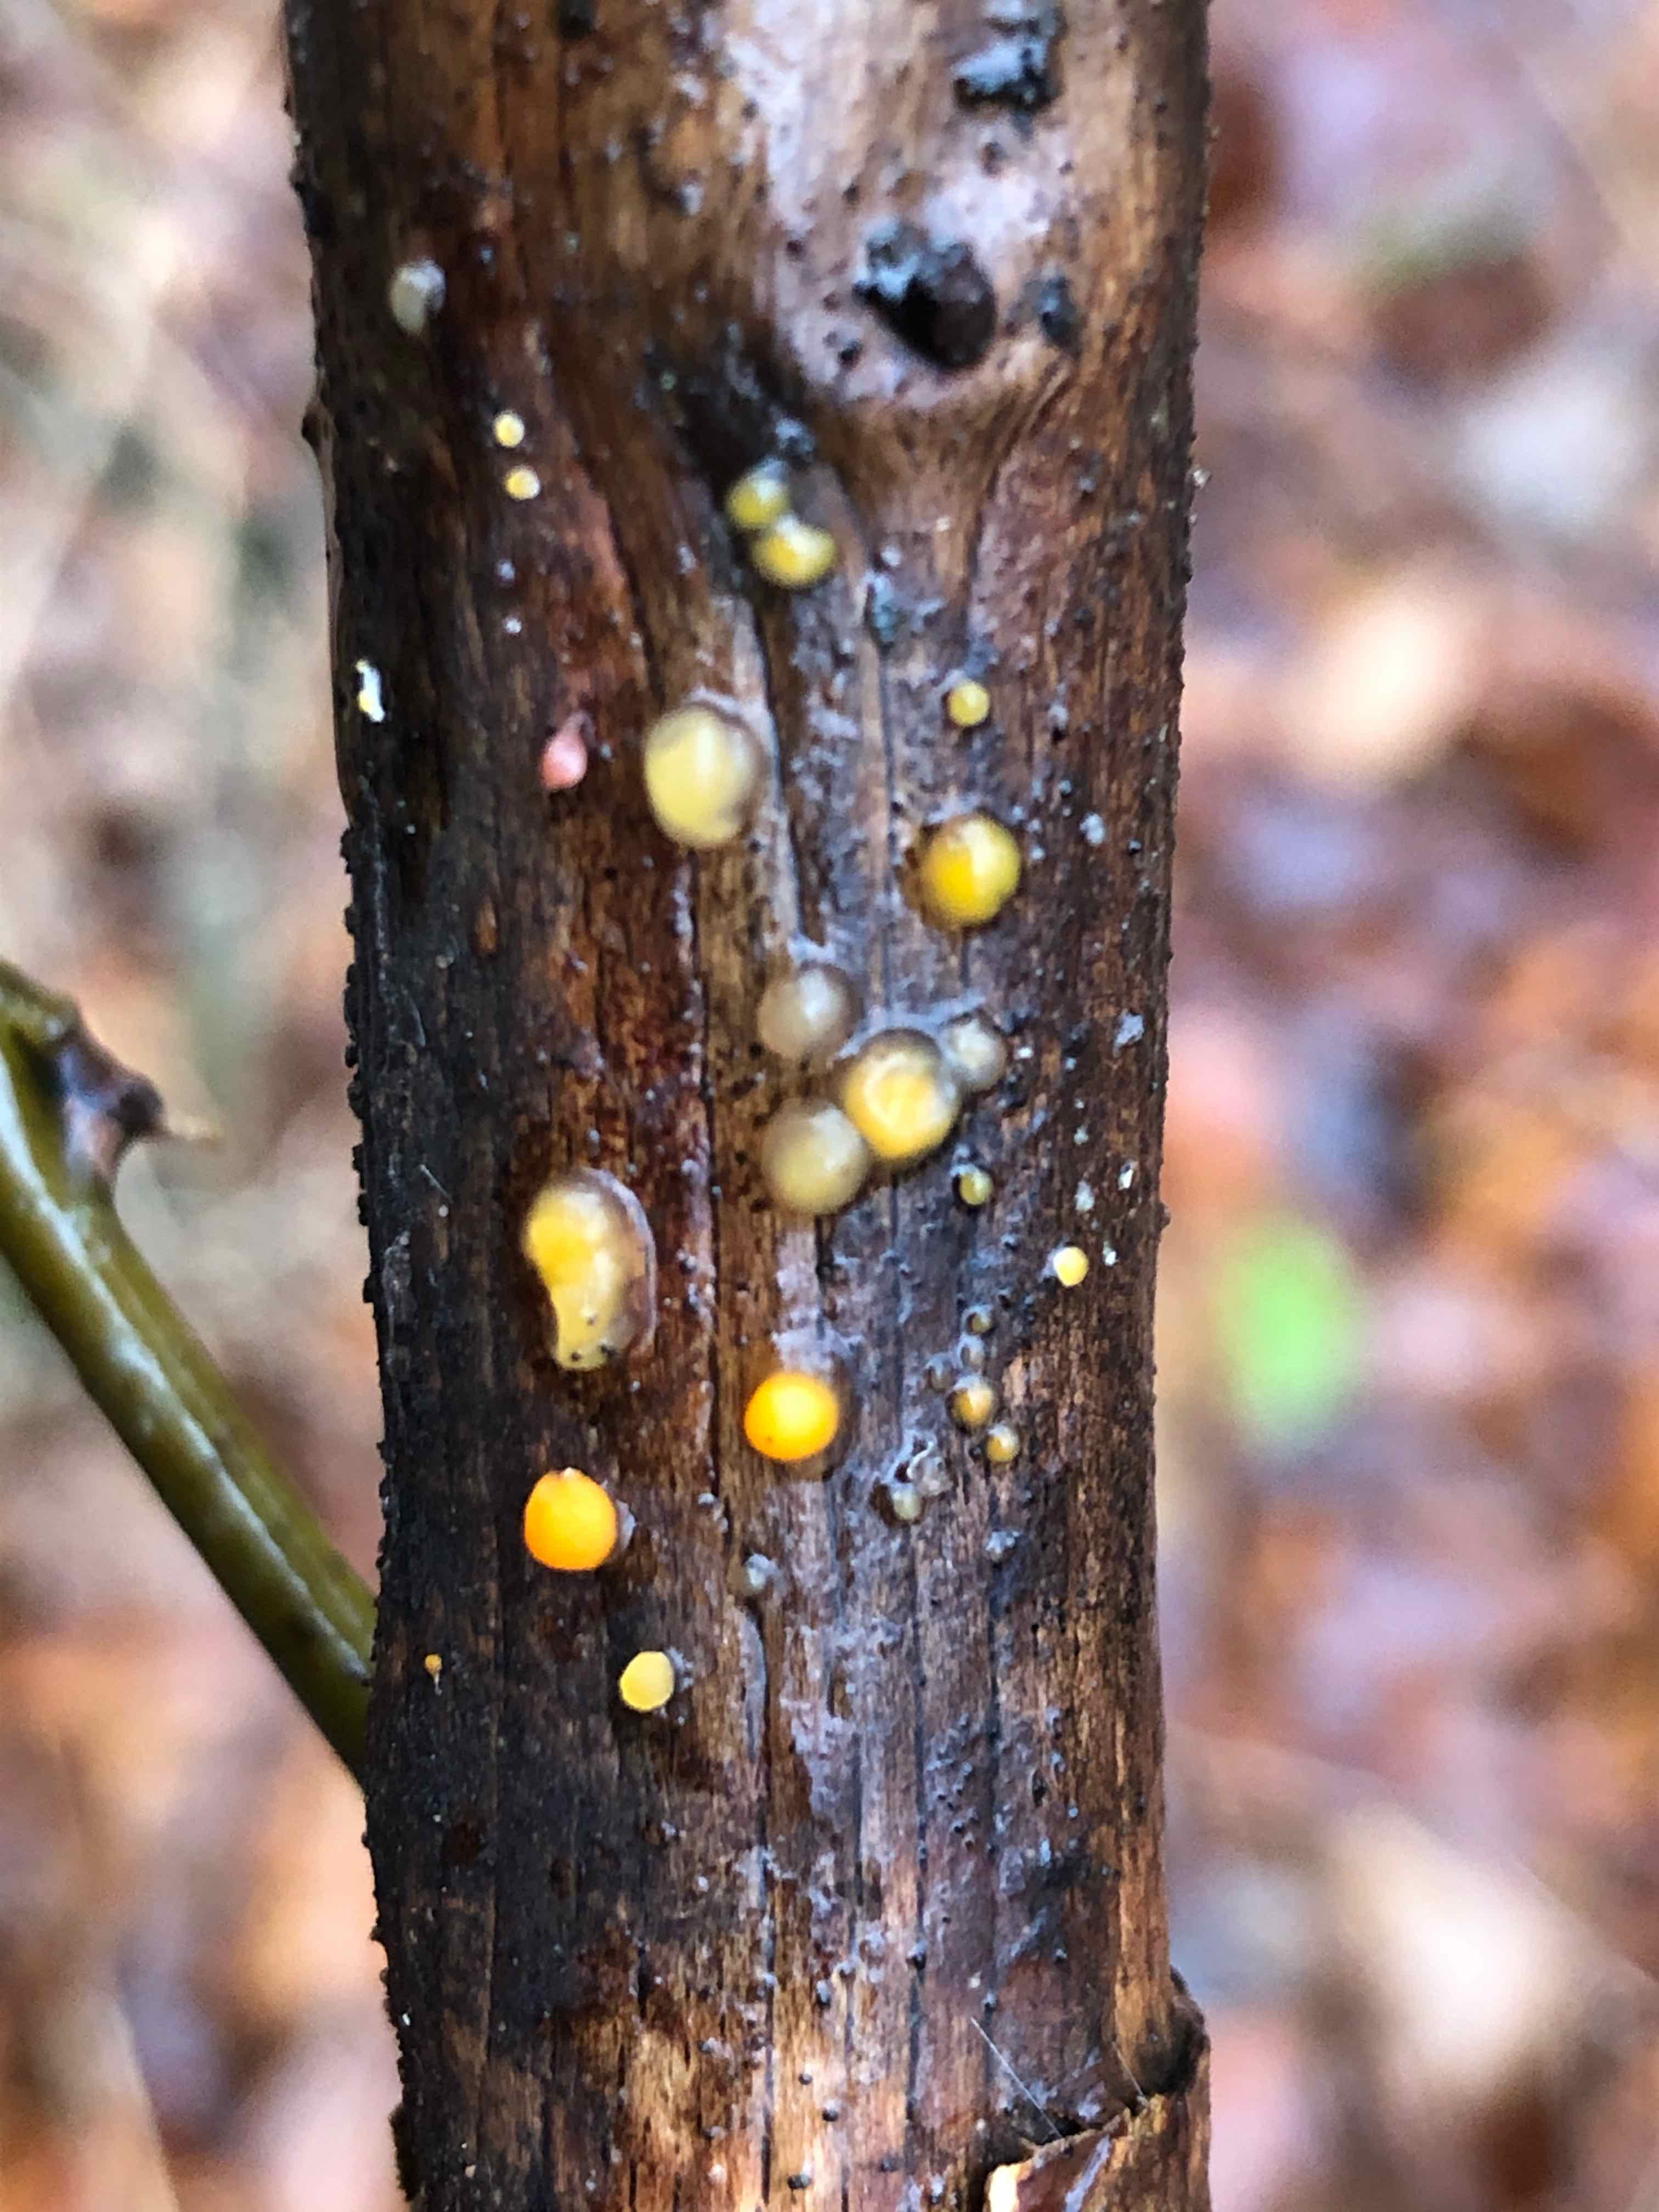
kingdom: Fungi
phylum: Basidiomycota
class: Dacrymycetes
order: Dacrymycetales
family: Dacrymycetaceae
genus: Dacrymyces
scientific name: Dacrymyces stillatus
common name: almindelig tåresvamp
